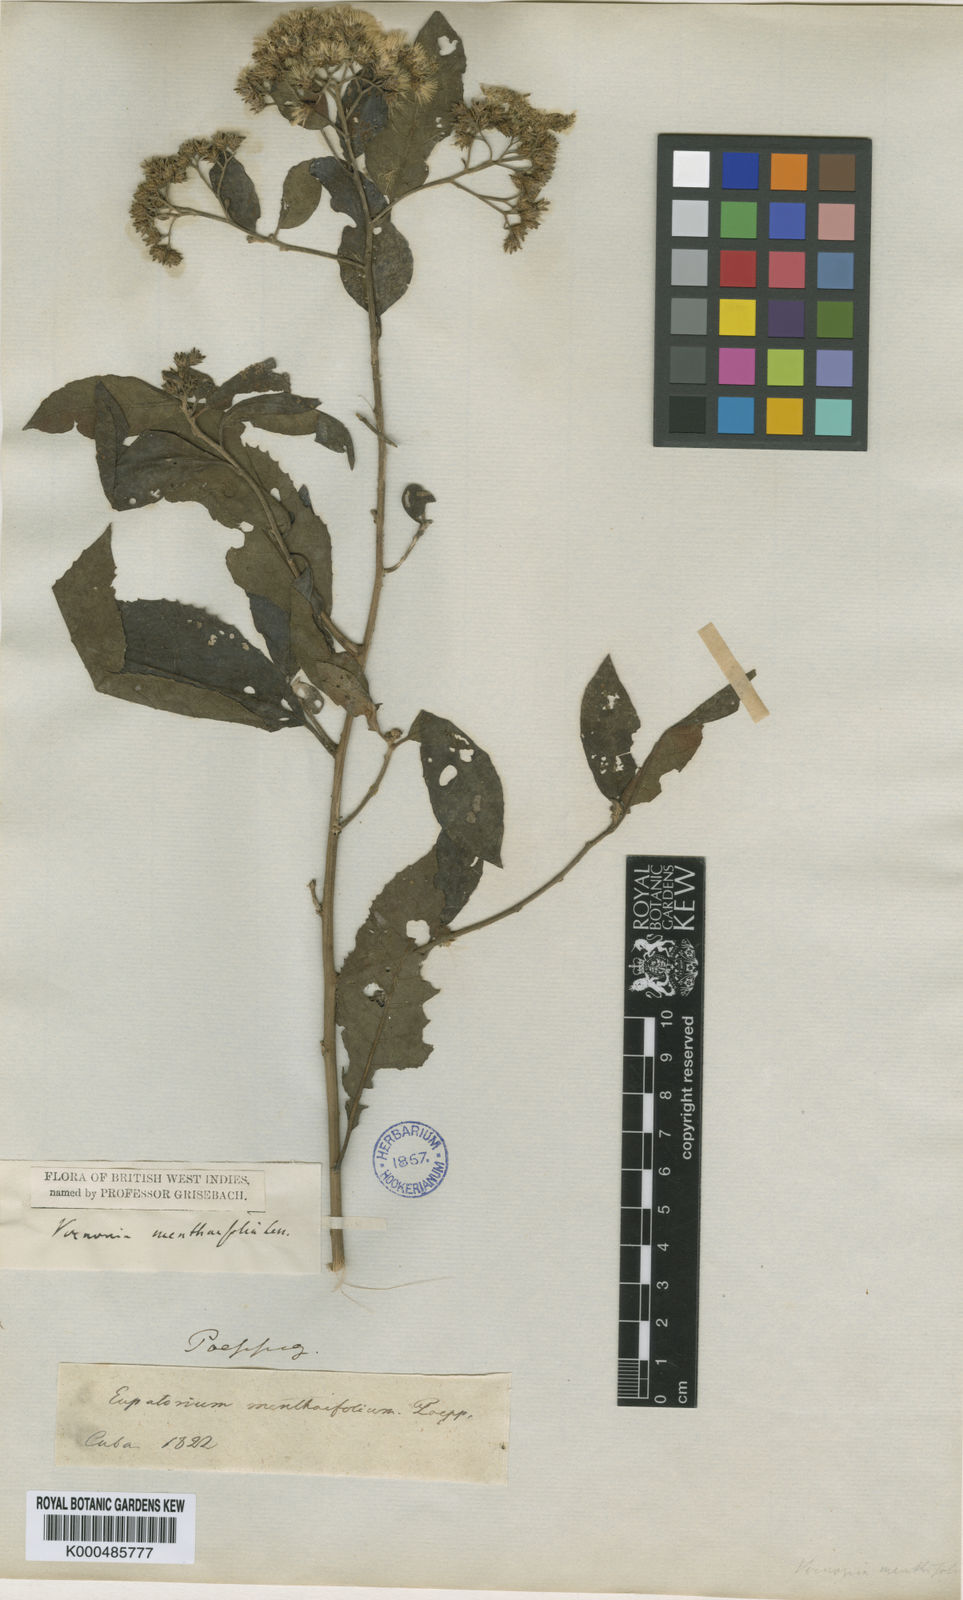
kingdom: Plantae
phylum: Tracheophyta
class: Magnoliopsida
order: Asterales
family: Asteraceae
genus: Vernonanthura
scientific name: Vernonanthura menthifolia
